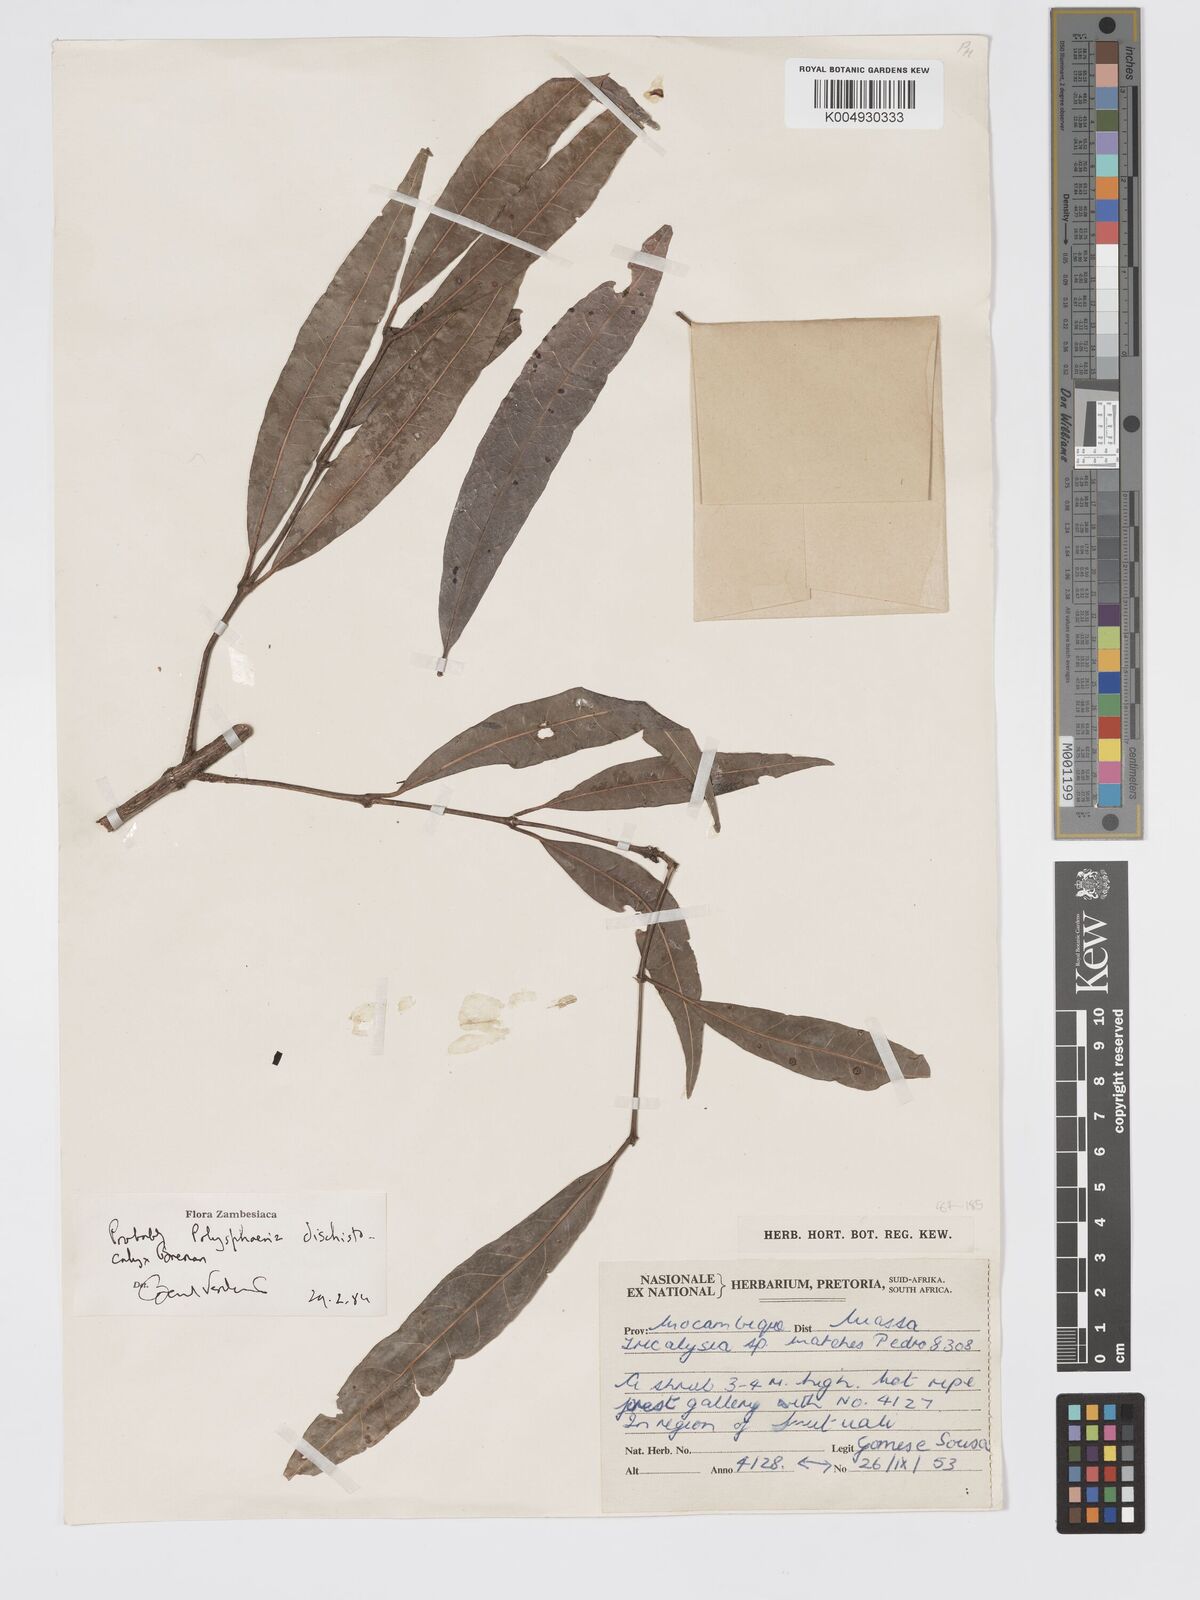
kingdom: Plantae
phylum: Tracheophyta
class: Magnoliopsida
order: Gentianales
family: Rubiaceae
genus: Polysphaeria
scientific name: Polysphaeria dischistocalyx
